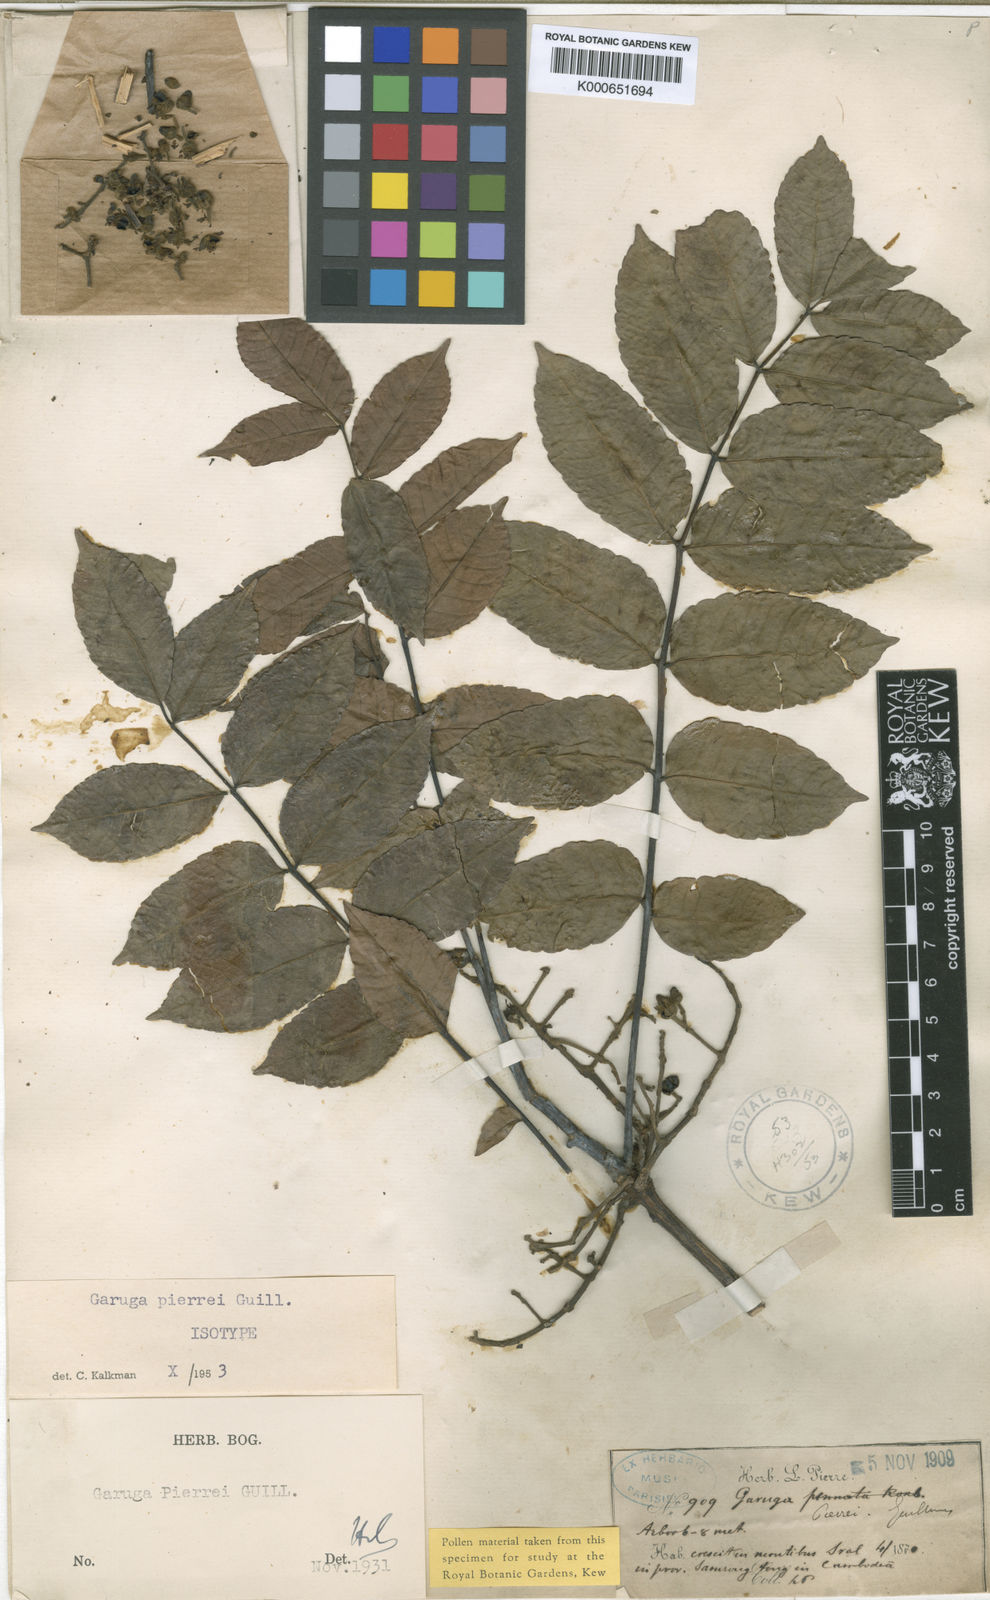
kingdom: Plantae
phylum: Tracheophyta
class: Magnoliopsida
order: Sapindales
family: Burseraceae
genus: Garuga
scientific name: Garuga pierrei
